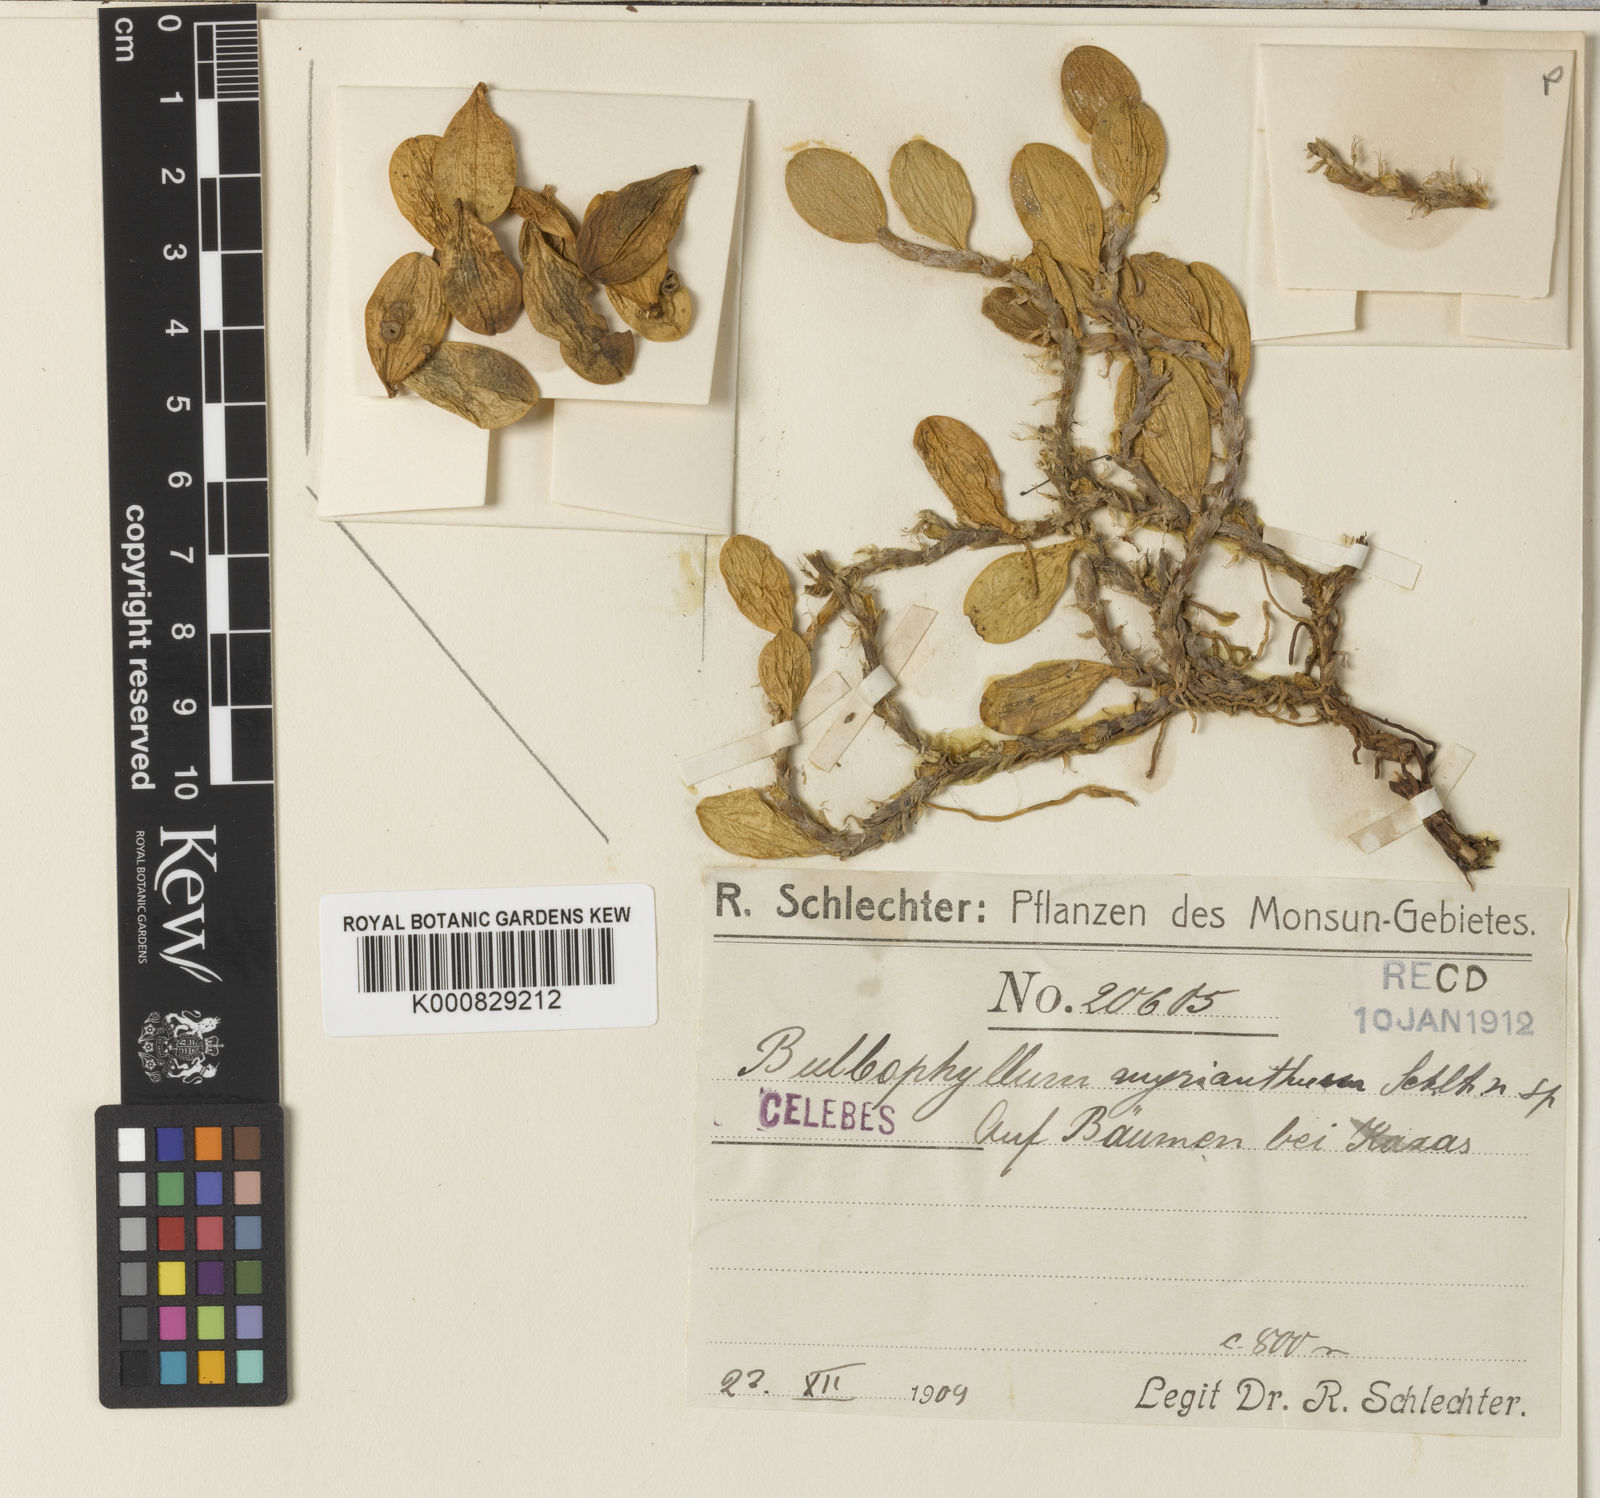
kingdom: Plantae
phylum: Tracheophyta
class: Liliopsida
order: Asparagales
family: Orchidaceae
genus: Bulbophyllum
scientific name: Bulbophyllum clandestinum
